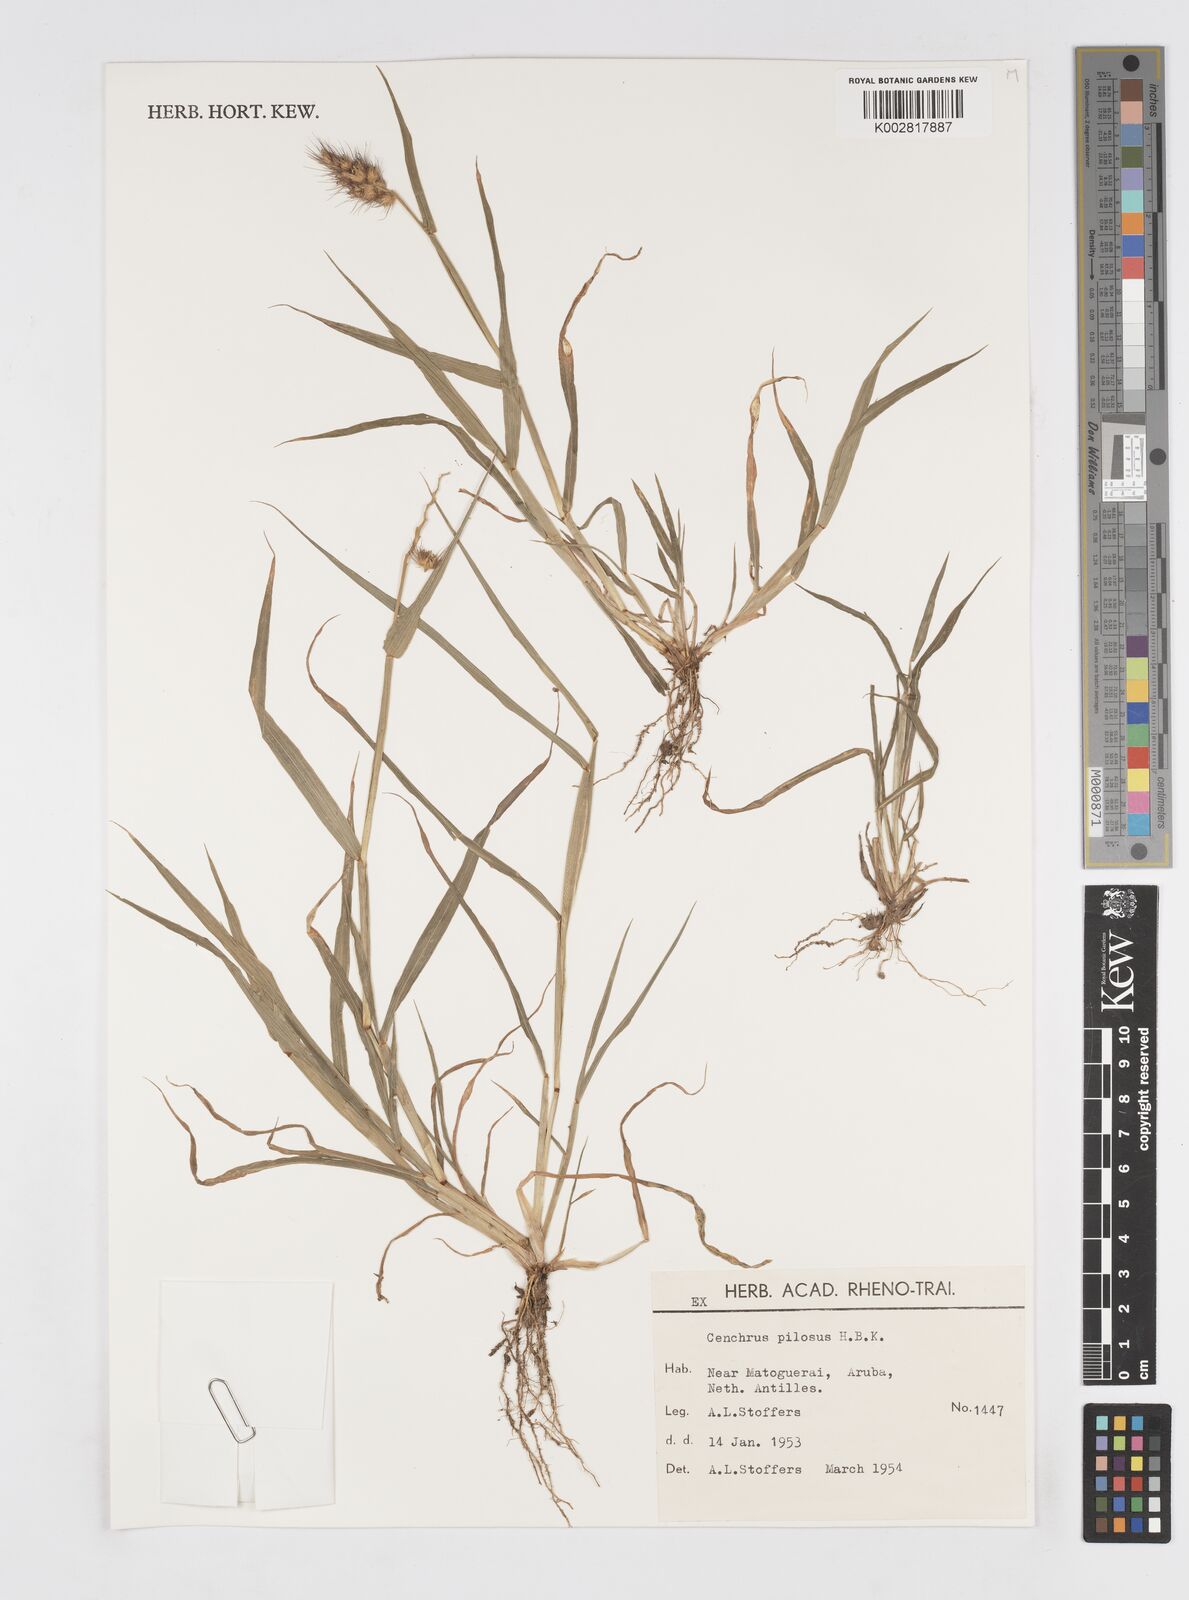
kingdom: Plantae
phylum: Tracheophyta
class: Liliopsida
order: Poales
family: Poaceae
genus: Cenchrus
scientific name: Cenchrus pilosus
